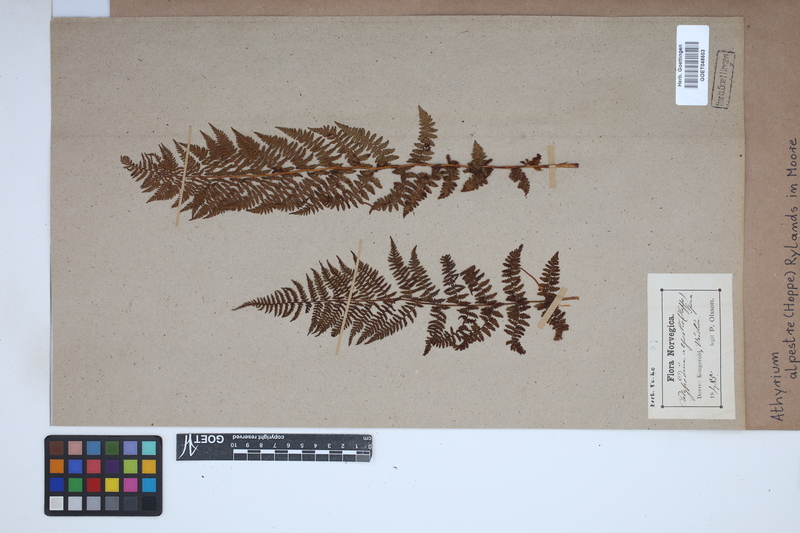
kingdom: Plantae
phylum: Tracheophyta
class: Polypodiopsida
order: Polypodiales
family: Athyriaceae
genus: Pseudathyrium
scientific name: Pseudathyrium alpestre
